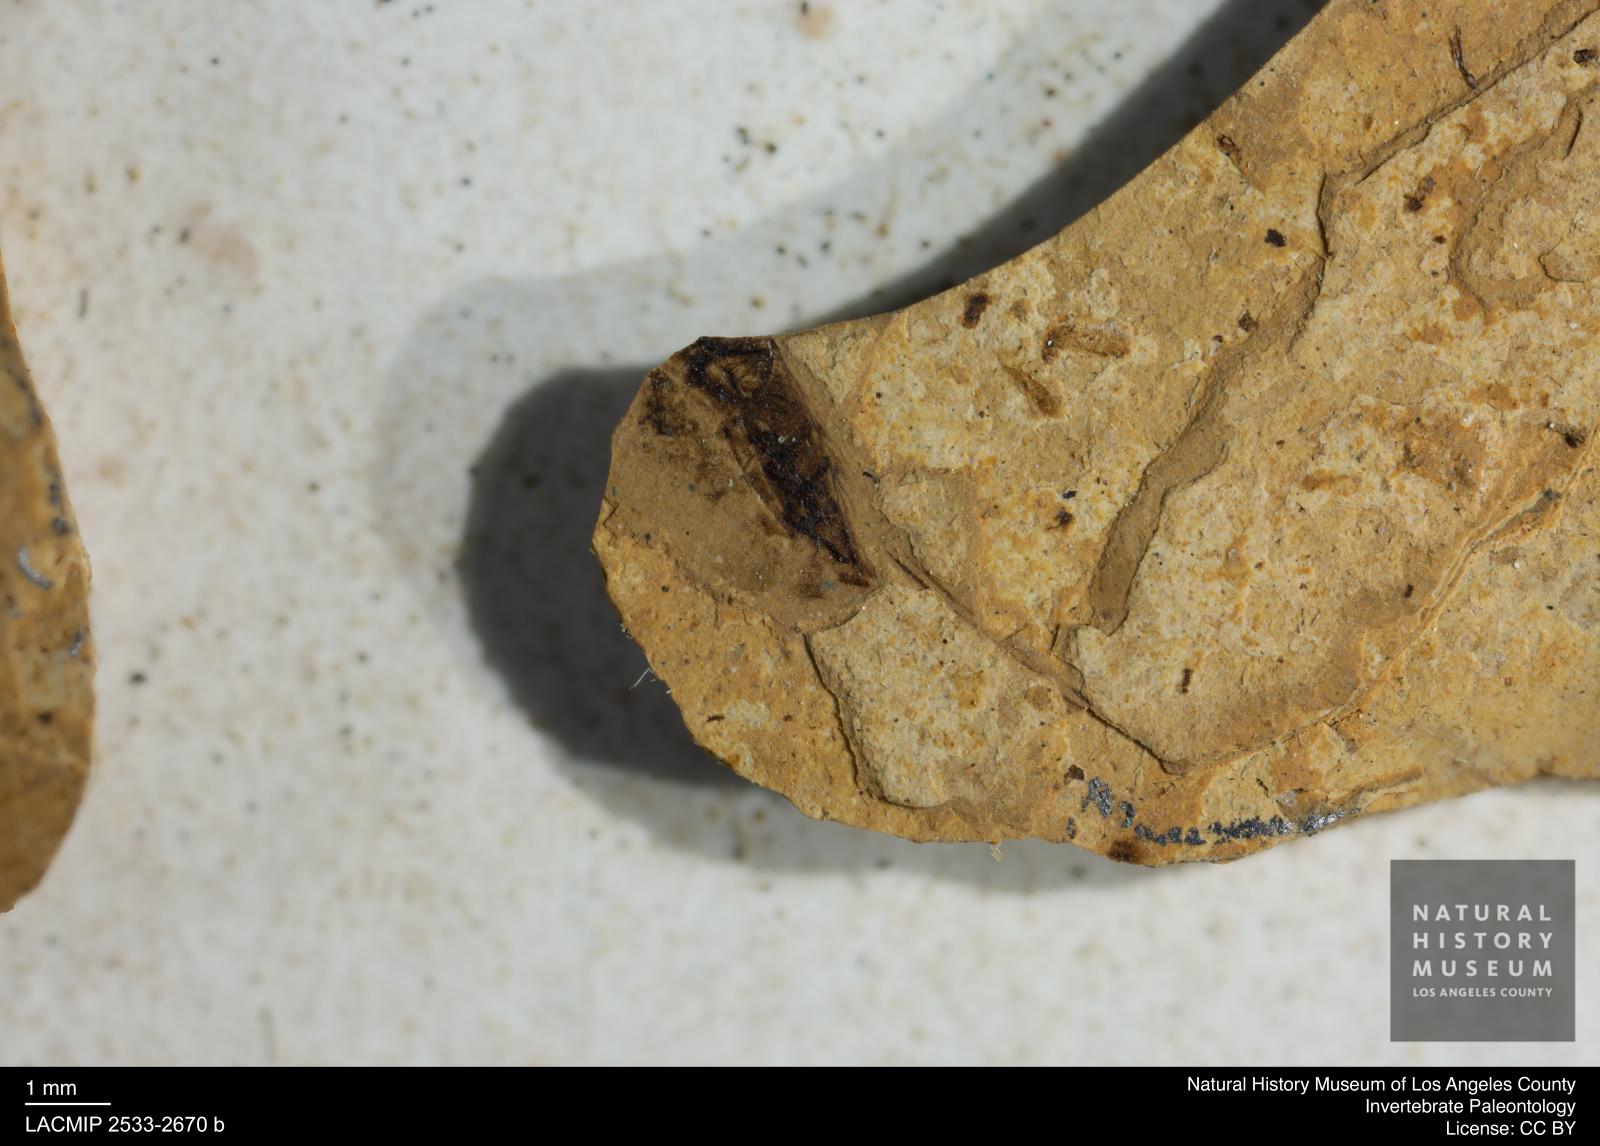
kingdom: Animalia
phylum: Arthropoda
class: Insecta
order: Hemiptera
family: Notonectidae
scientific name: Notonectidae
